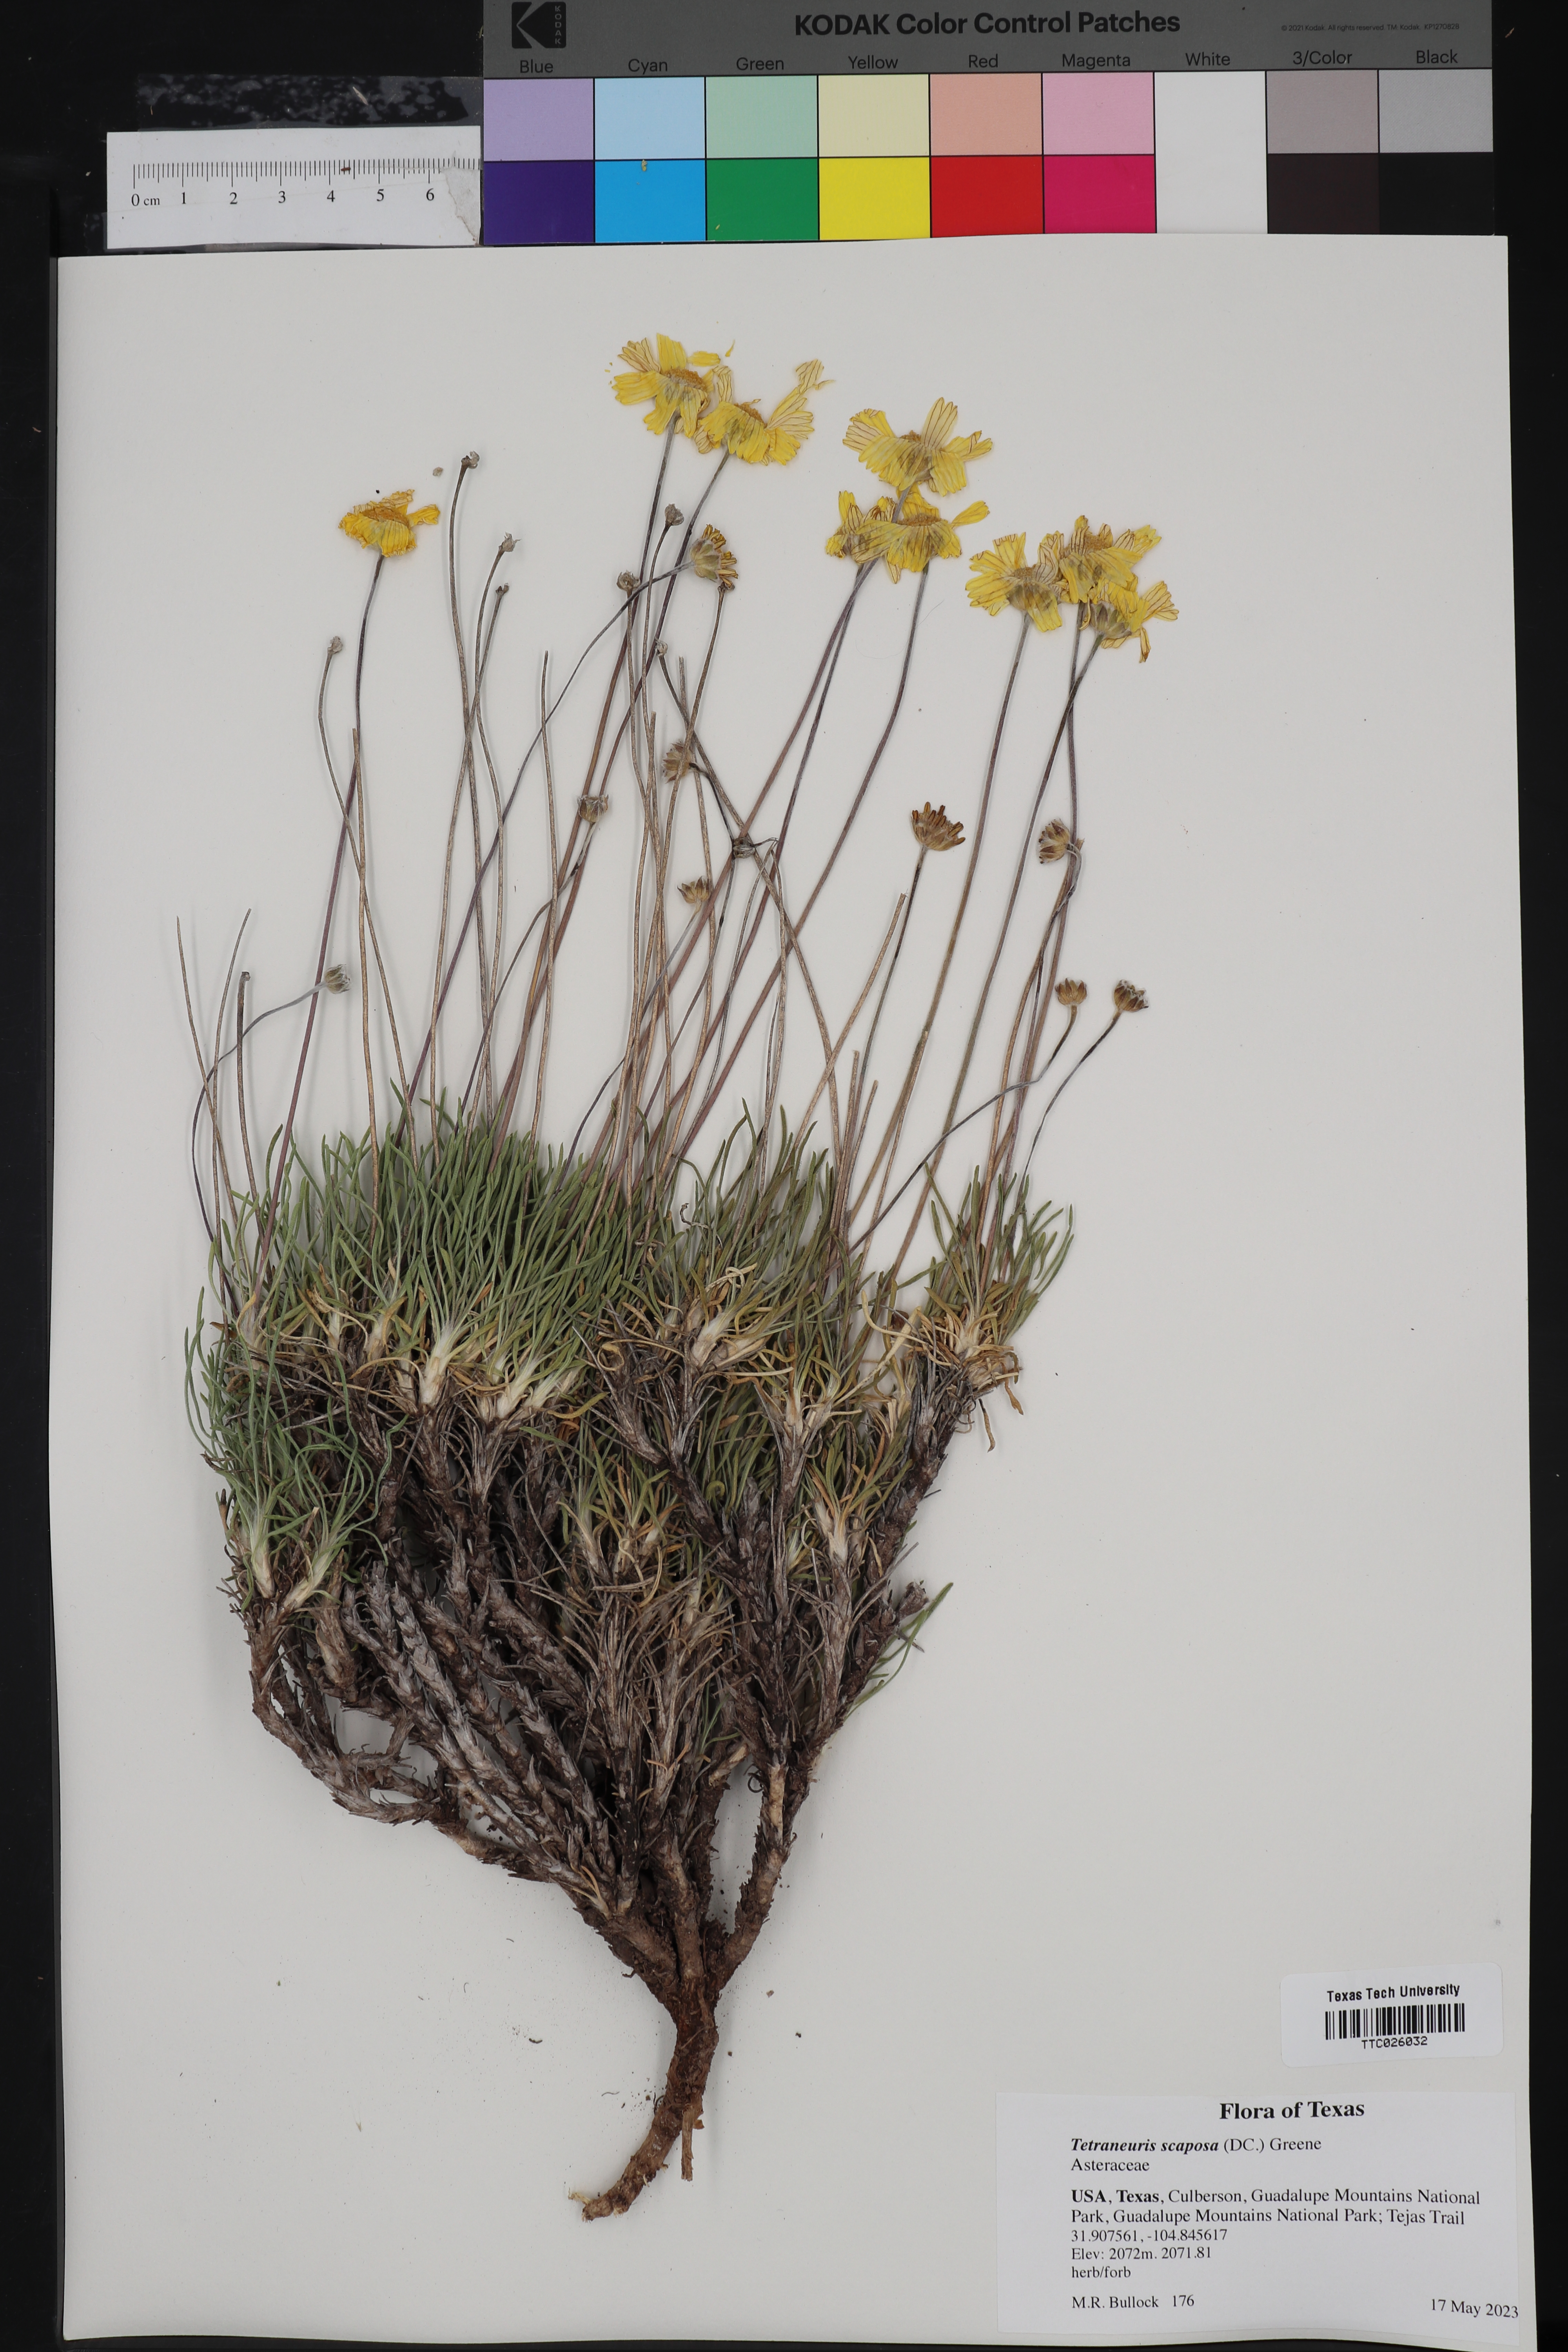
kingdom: Plantae
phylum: Tracheophyta
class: Magnoliopsida
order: Asterales
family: Asteraceae
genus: Tetraneuris
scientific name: Tetraneuris scaposa
